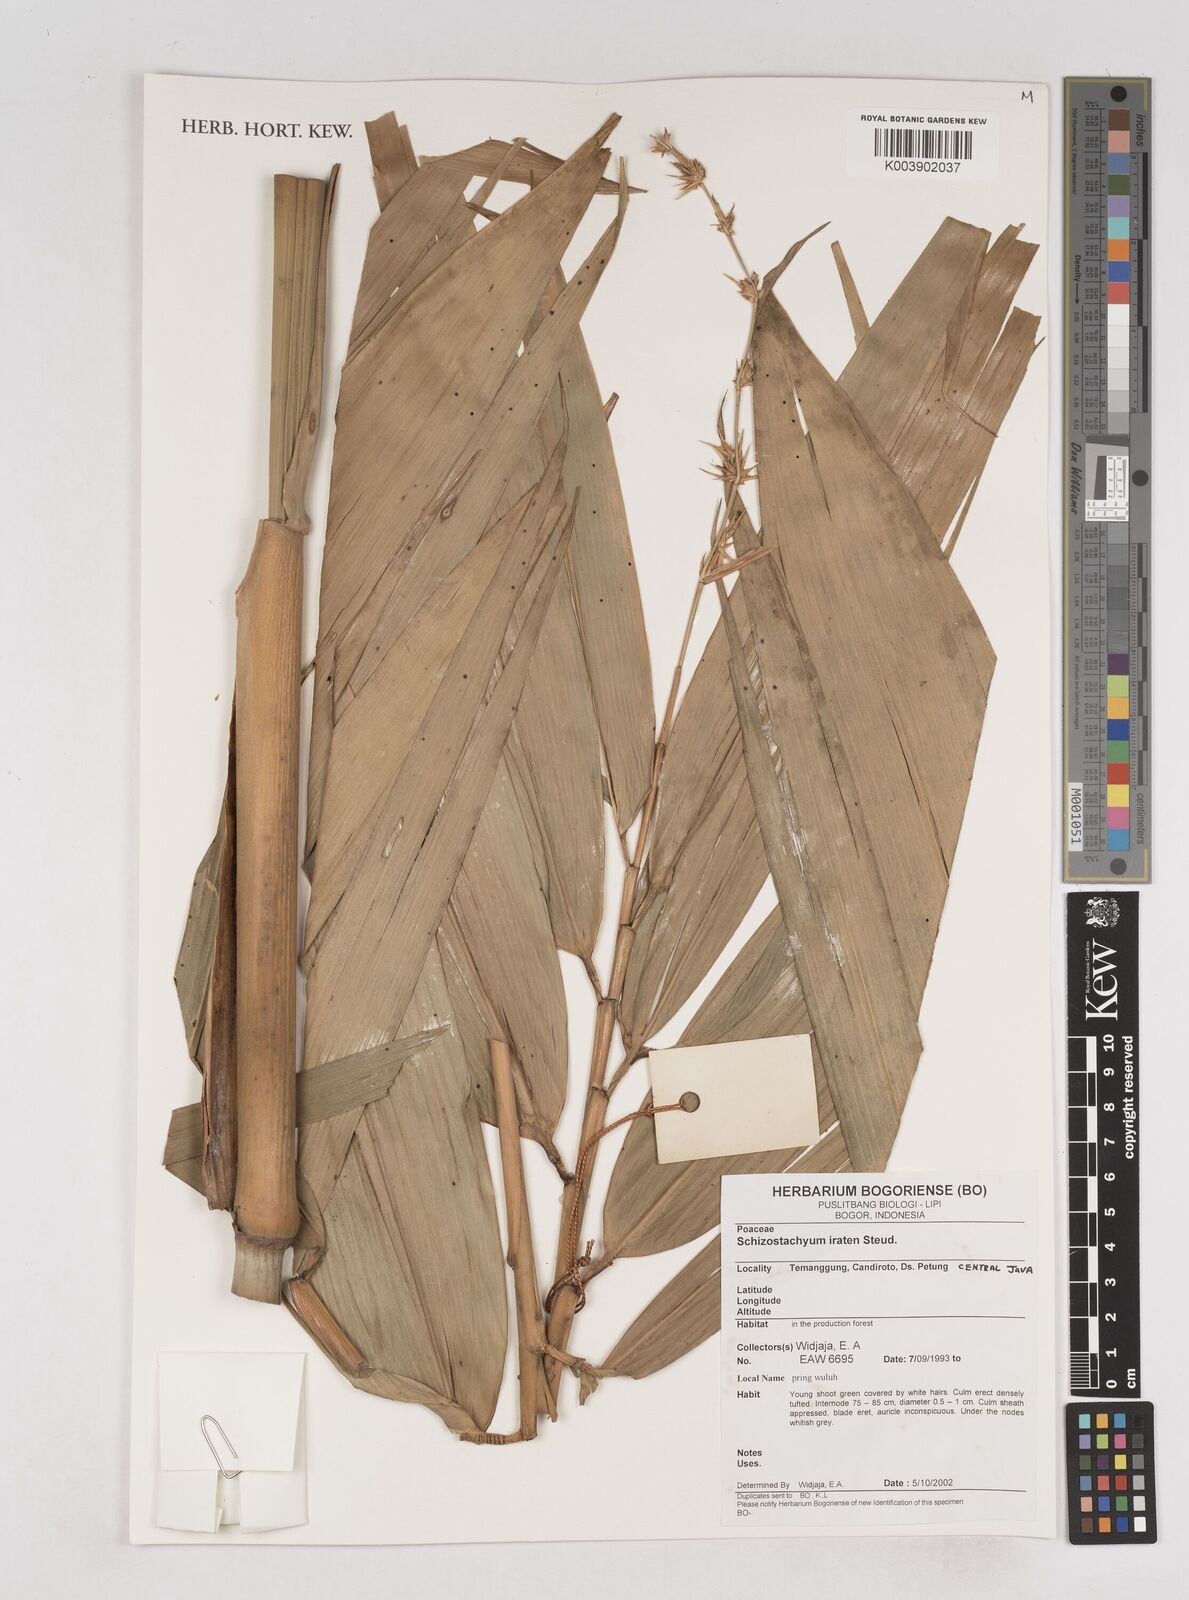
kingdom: Plantae
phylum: Tracheophyta
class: Liliopsida
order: Poales
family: Poaceae
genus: Schizostachyum
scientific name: Schizostachyum iraten
